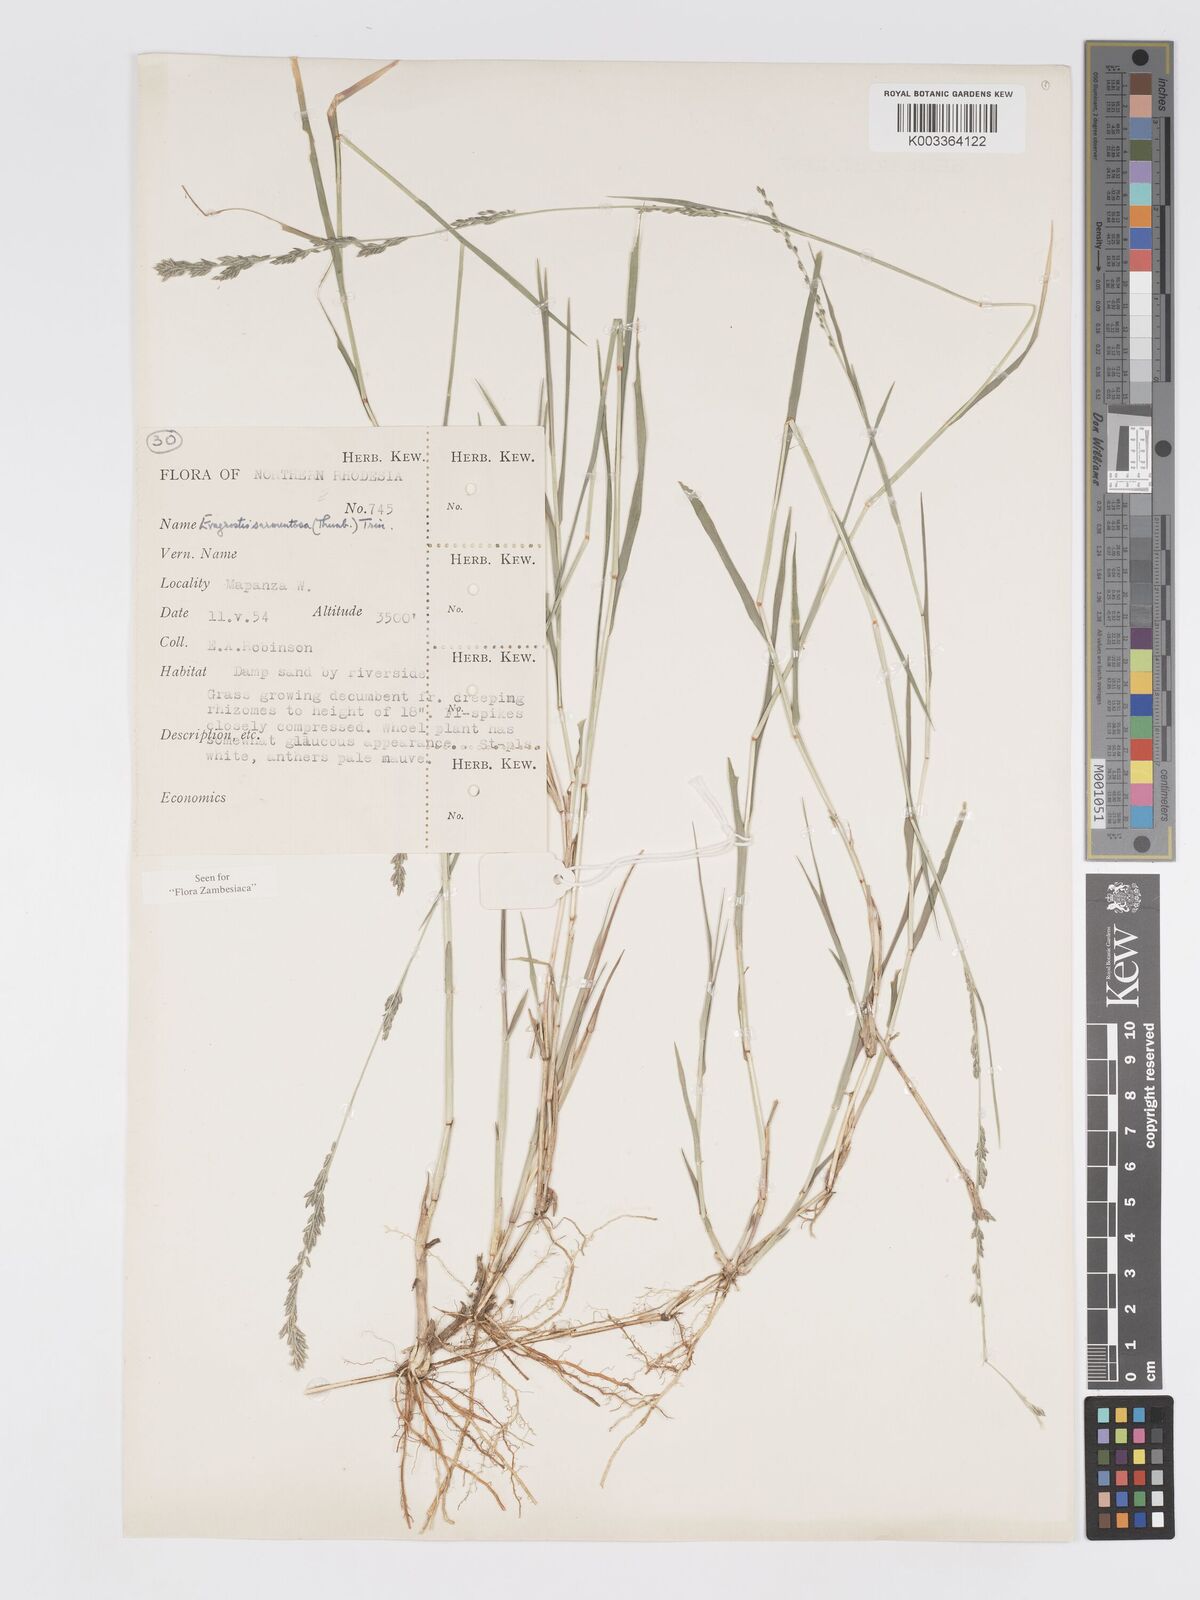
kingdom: Plantae
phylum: Tracheophyta
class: Liliopsida
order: Poales
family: Poaceae
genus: Eragrostis
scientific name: Eragrostis sarmentosa
